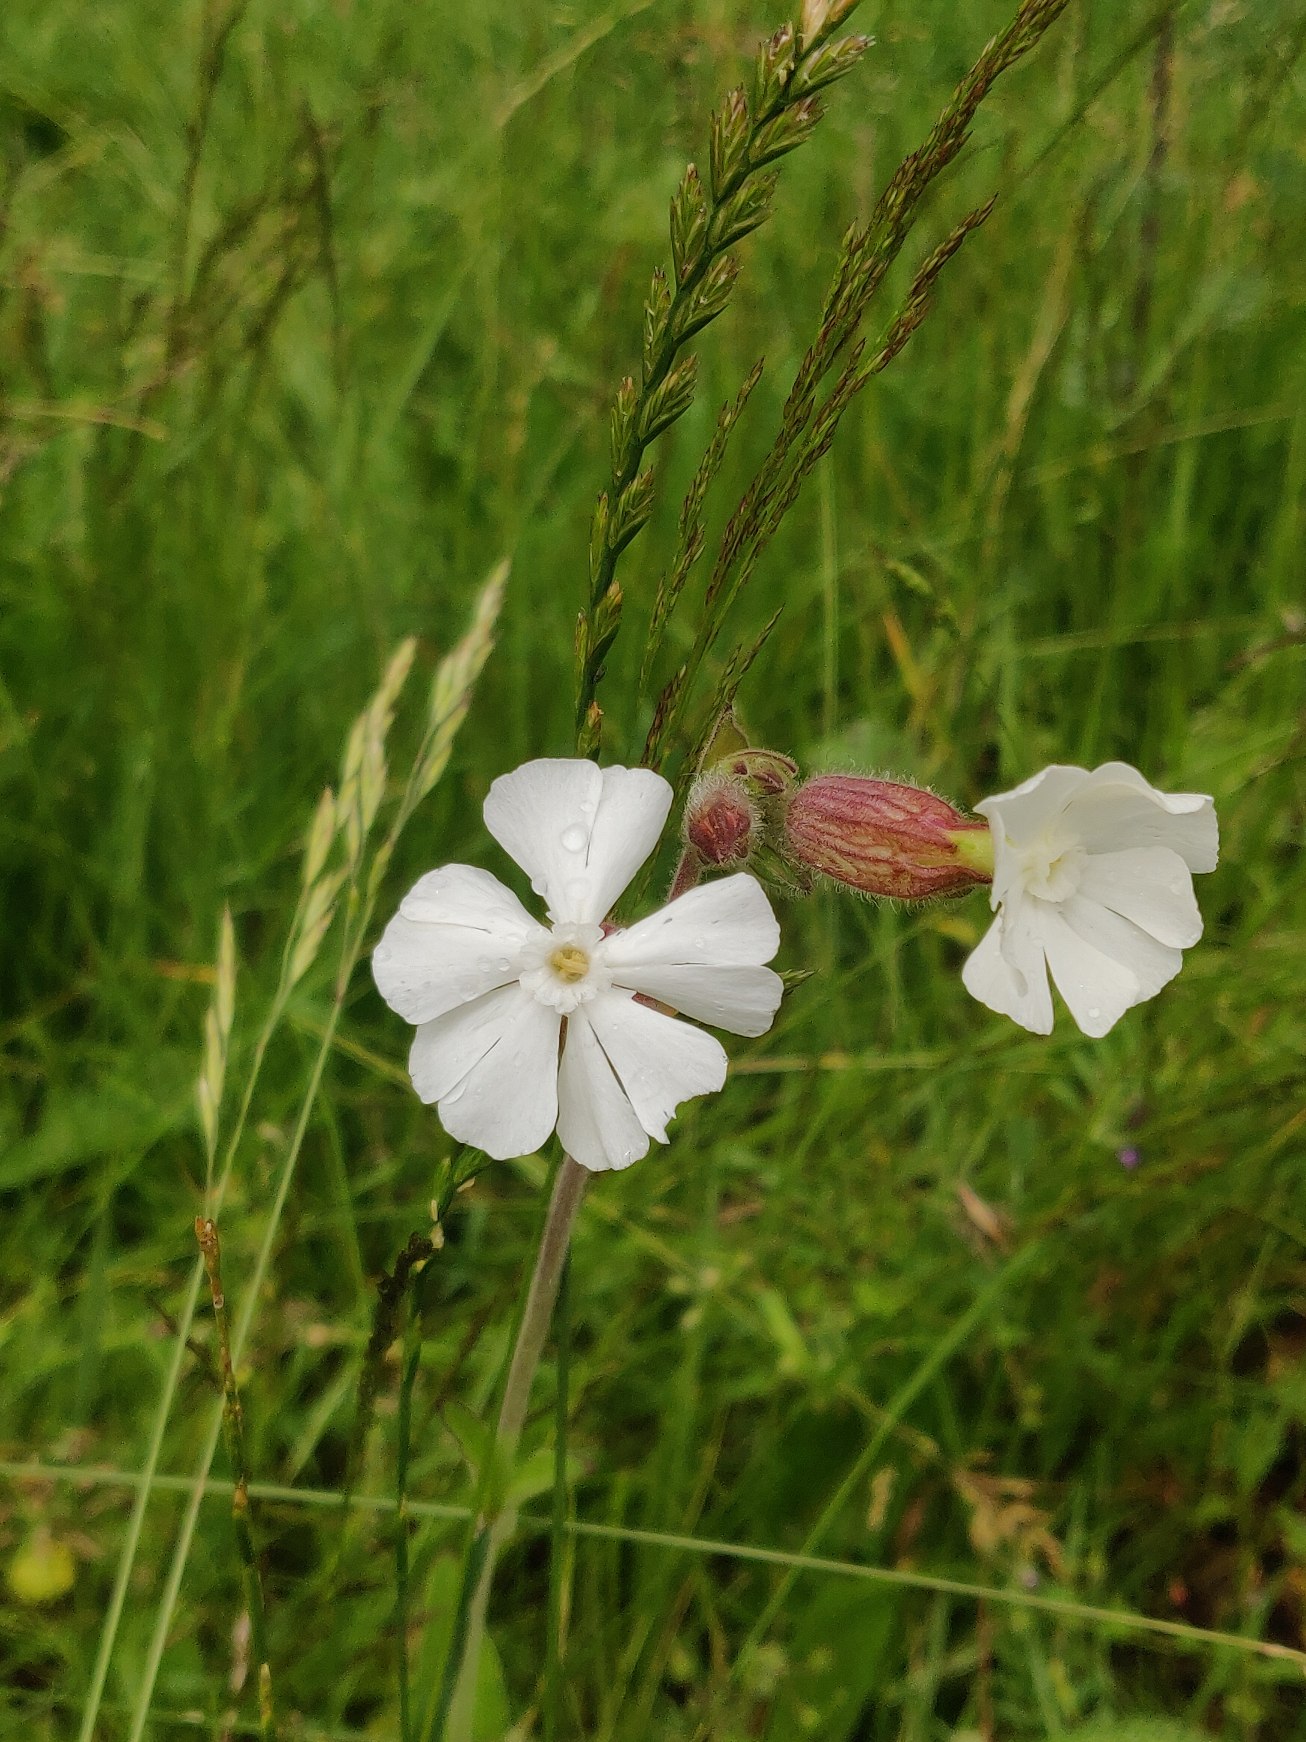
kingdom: Plantae
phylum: Tracheophyta
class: Magnoliopsida
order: Caryophyllales
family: Caryophyllaceae
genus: Silene
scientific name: Silene latifolia
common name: Aftenpragtstjerne
